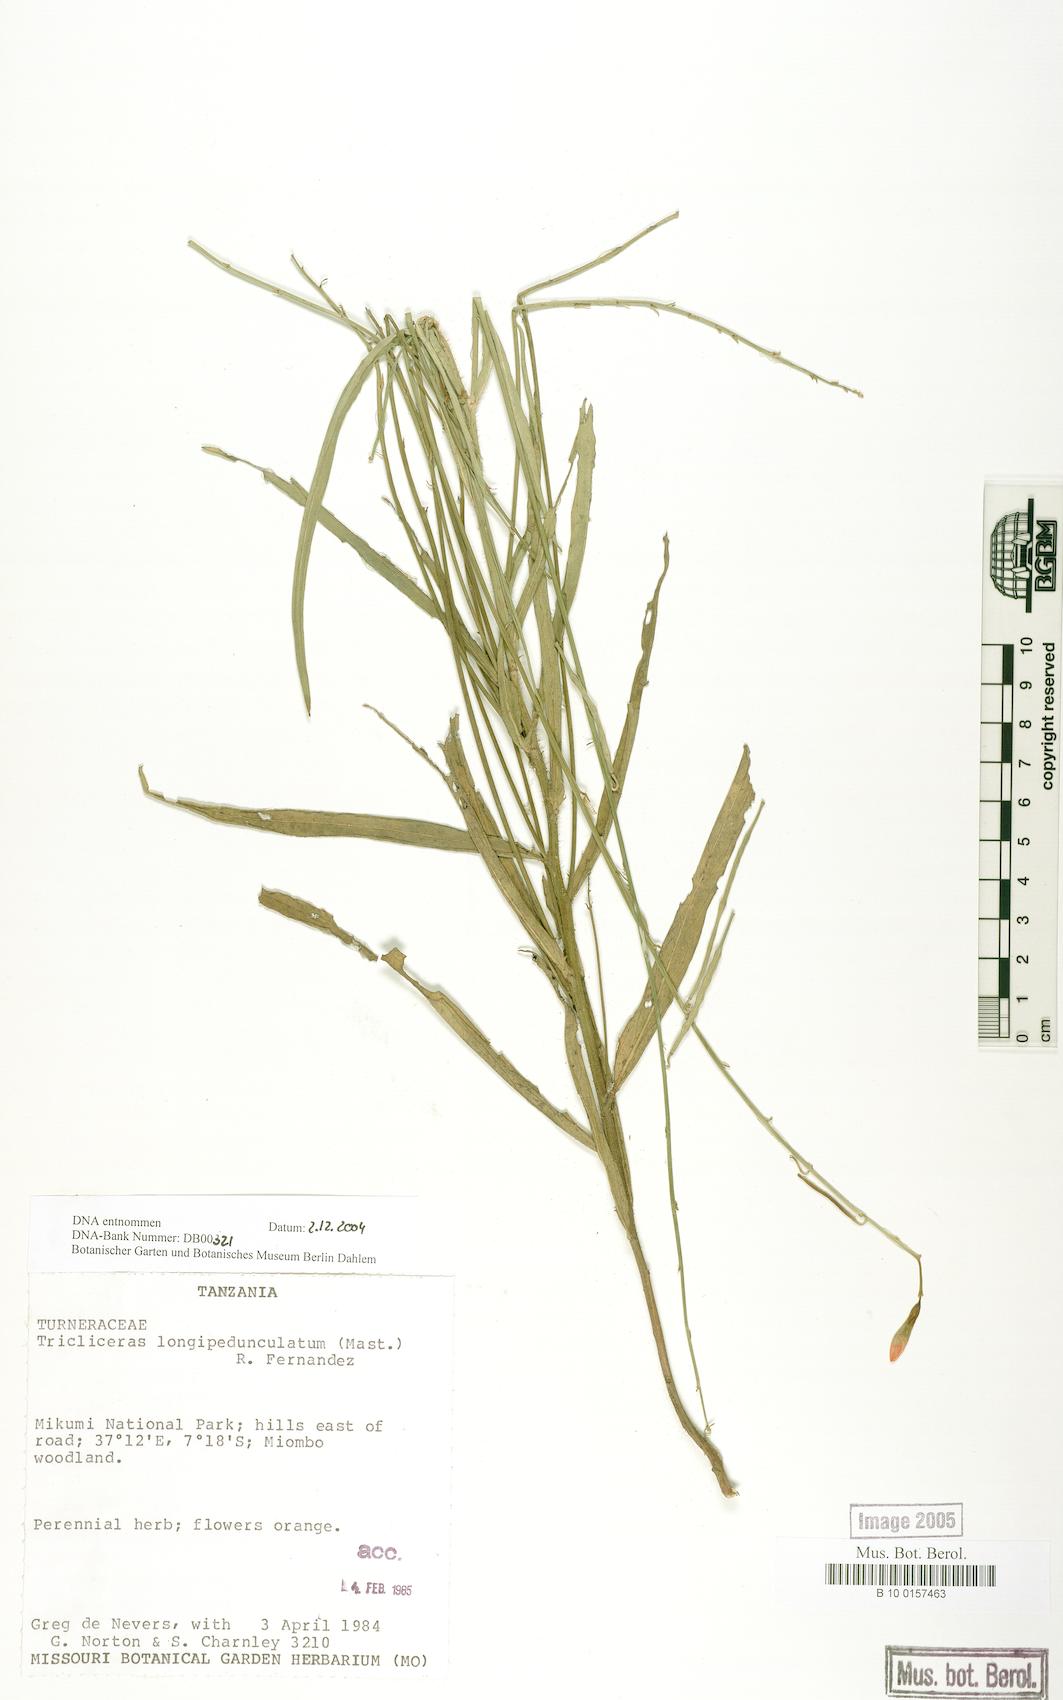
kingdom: Plantae
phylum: Tracheophyta
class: Magnoliopsida
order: Malpighiales
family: Turneraceae
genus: Tricliceras
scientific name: Tricliceras longipedunculatum
